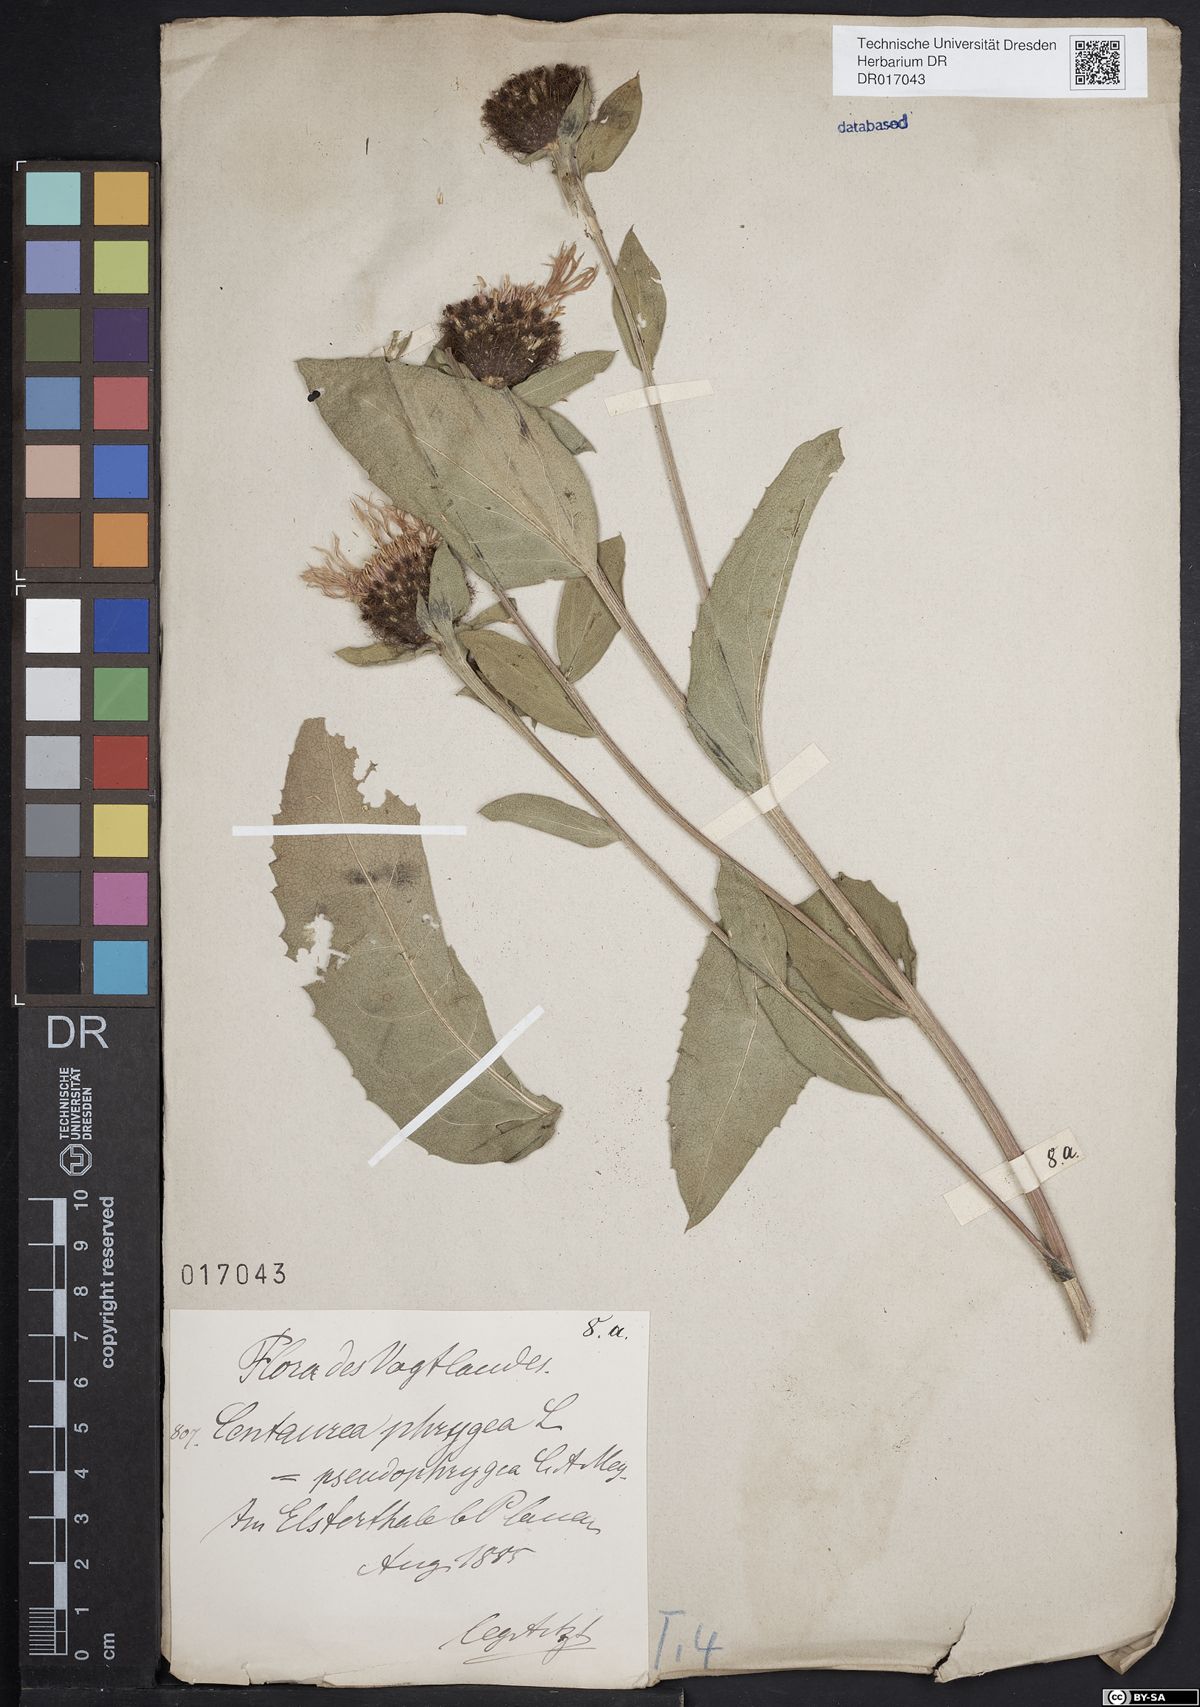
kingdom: Plantae
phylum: Tracheophyta
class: Magnoliopsida
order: Asterales
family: Asteraceae
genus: Centaurea
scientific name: Centaurea pseudophrygia
